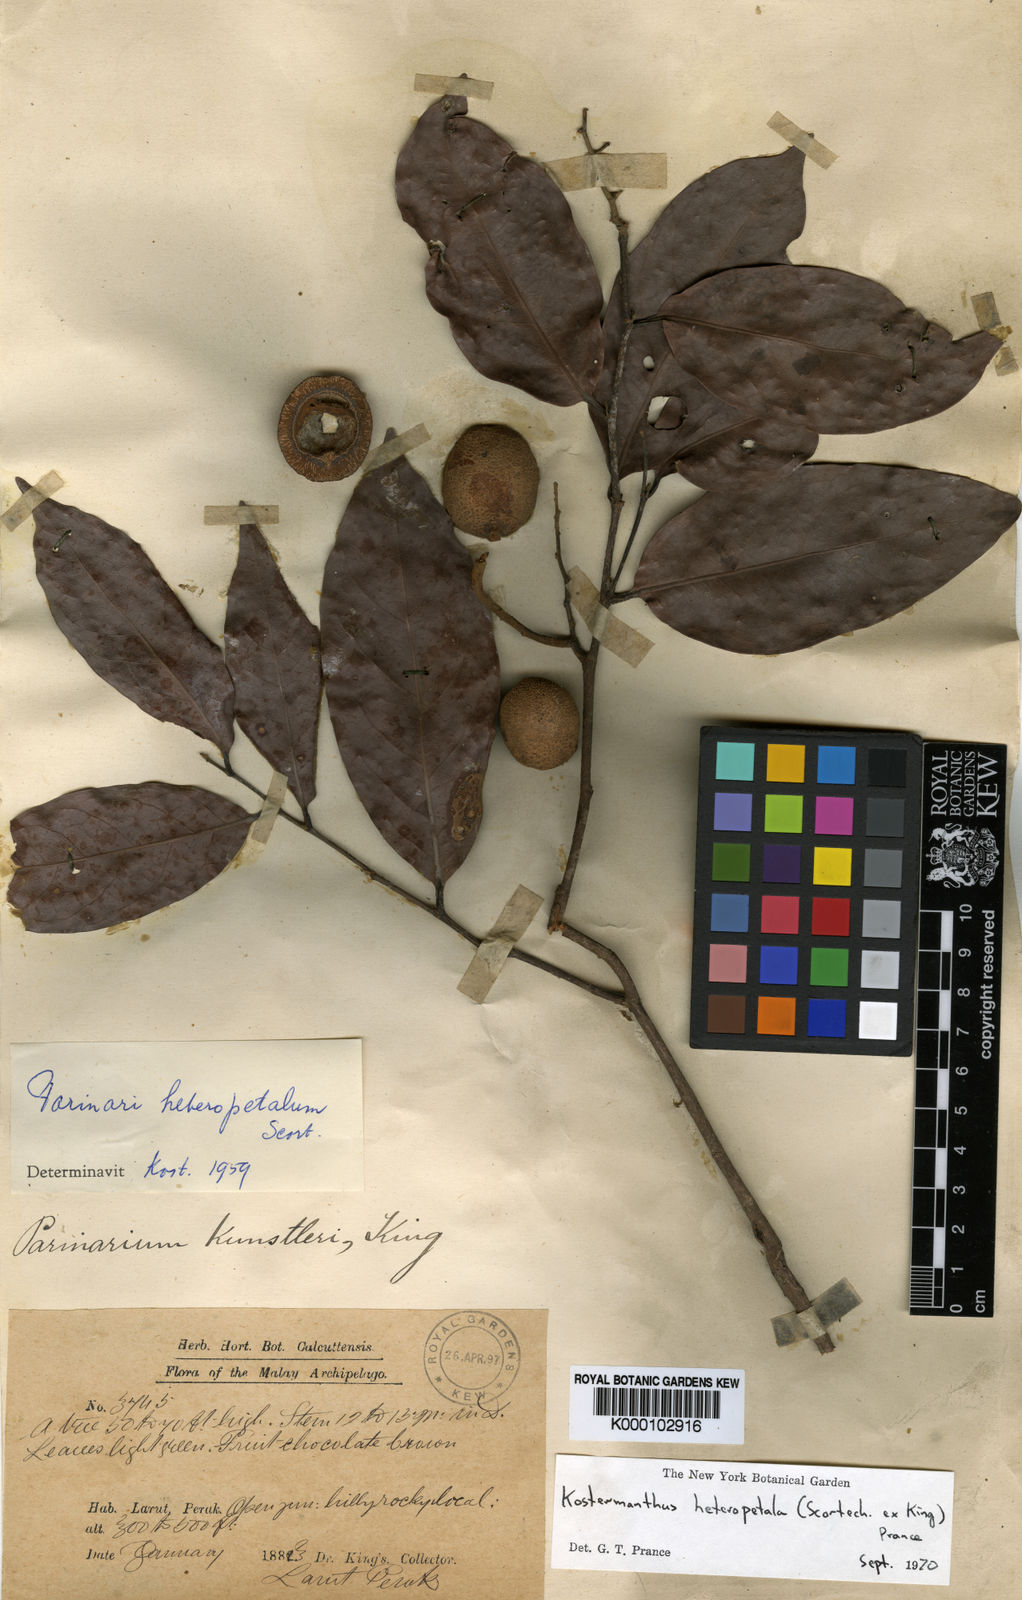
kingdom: Plantae
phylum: Tracheophyta
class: Magnoliopsida
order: Malpighiales
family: Chrysobalanaceae
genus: Kostermanthus
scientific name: Kostermanthus heteropetalus
